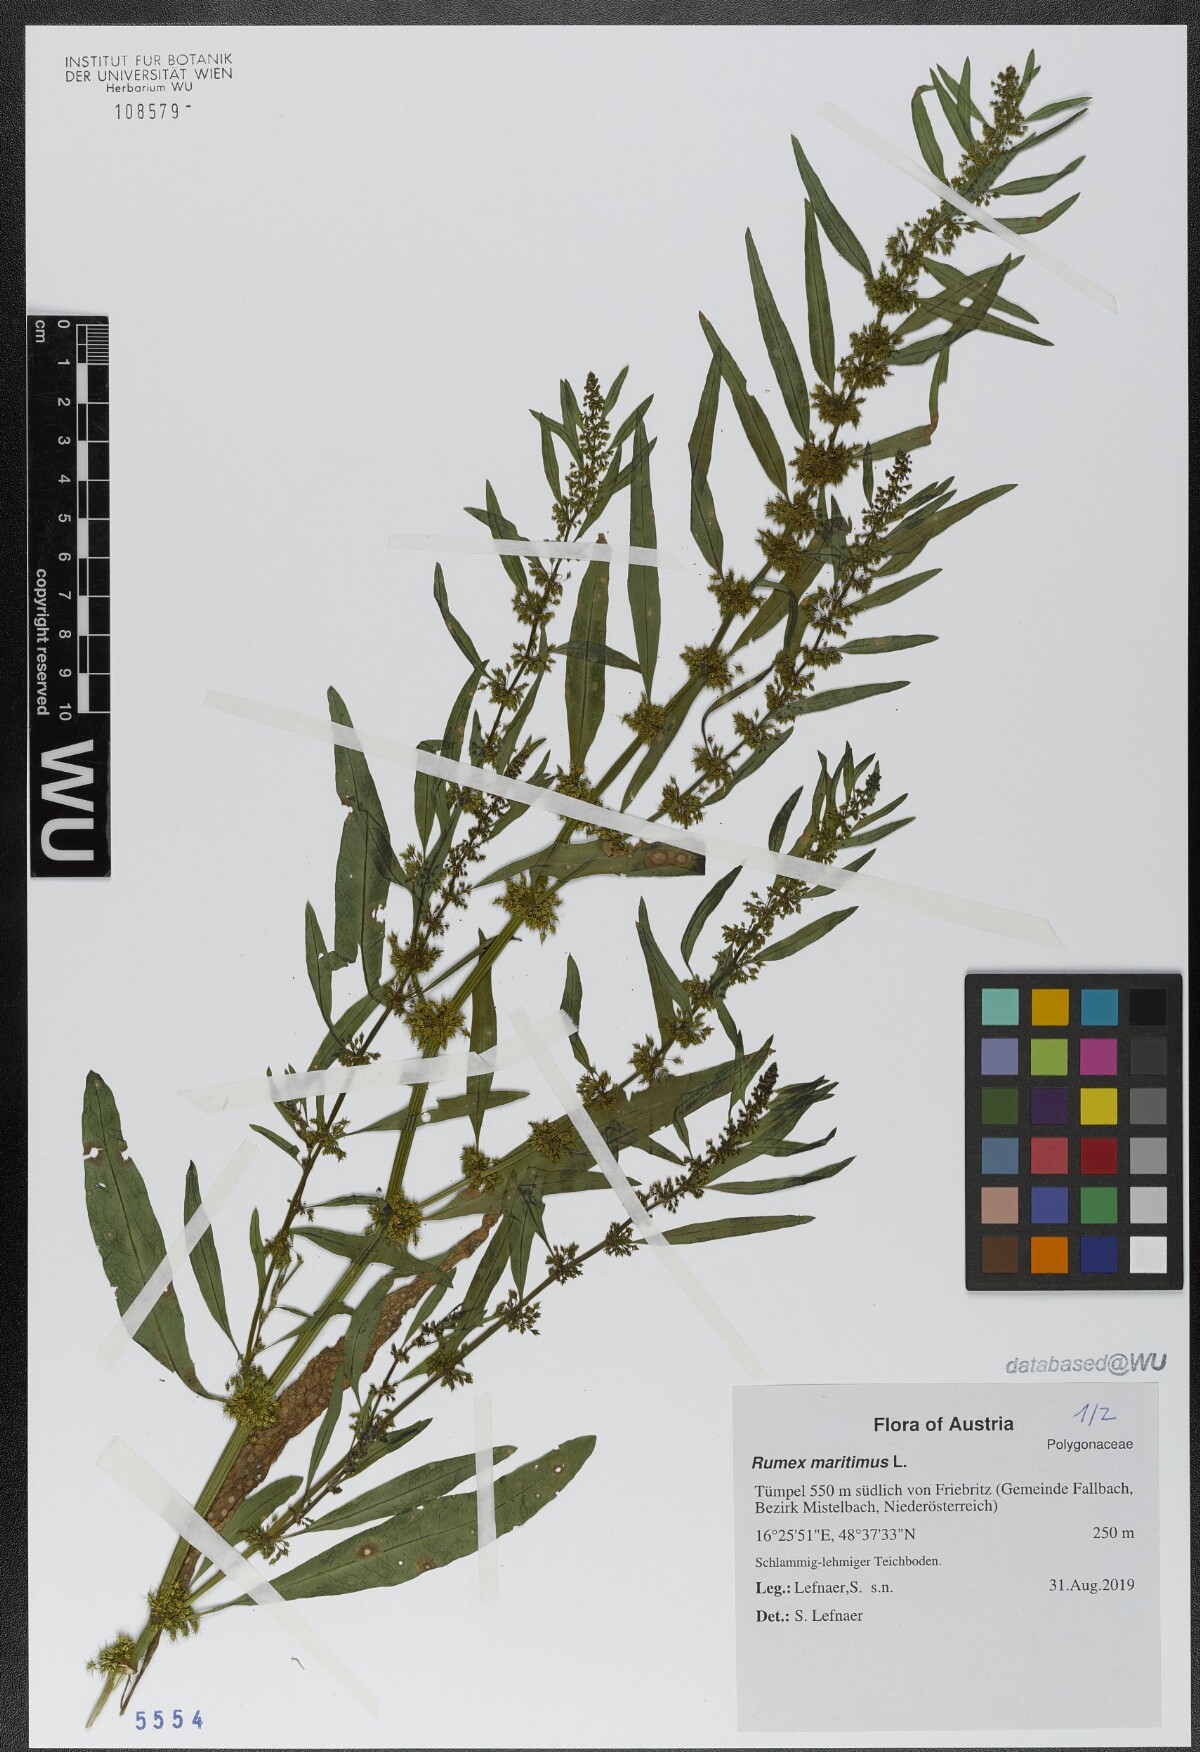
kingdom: Plantae
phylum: Tracheophyta
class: Magnoliopsida
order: Caryophyllales
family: Polygonaceae
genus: Rumex
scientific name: Rumex maritimus
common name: Golden dock
